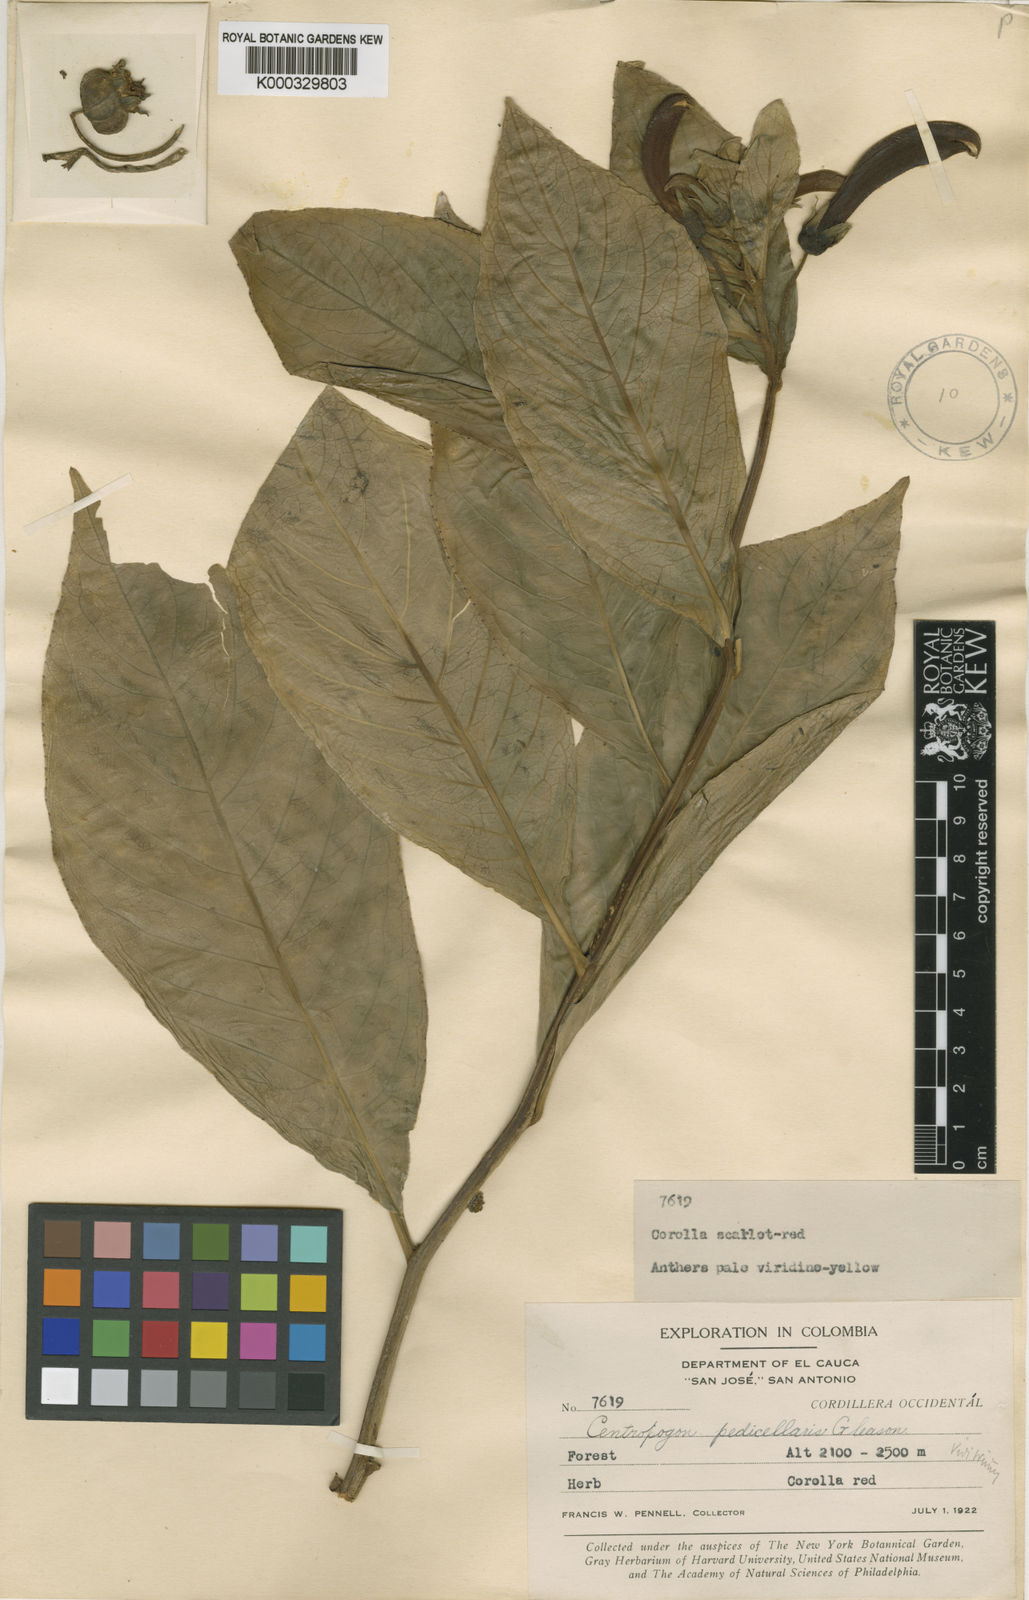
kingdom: Plantae
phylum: Tracheophyta
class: Magnoliopsida
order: Asterales
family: Campanulaceae
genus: Centropogon
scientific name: Centropogon solanifolius
